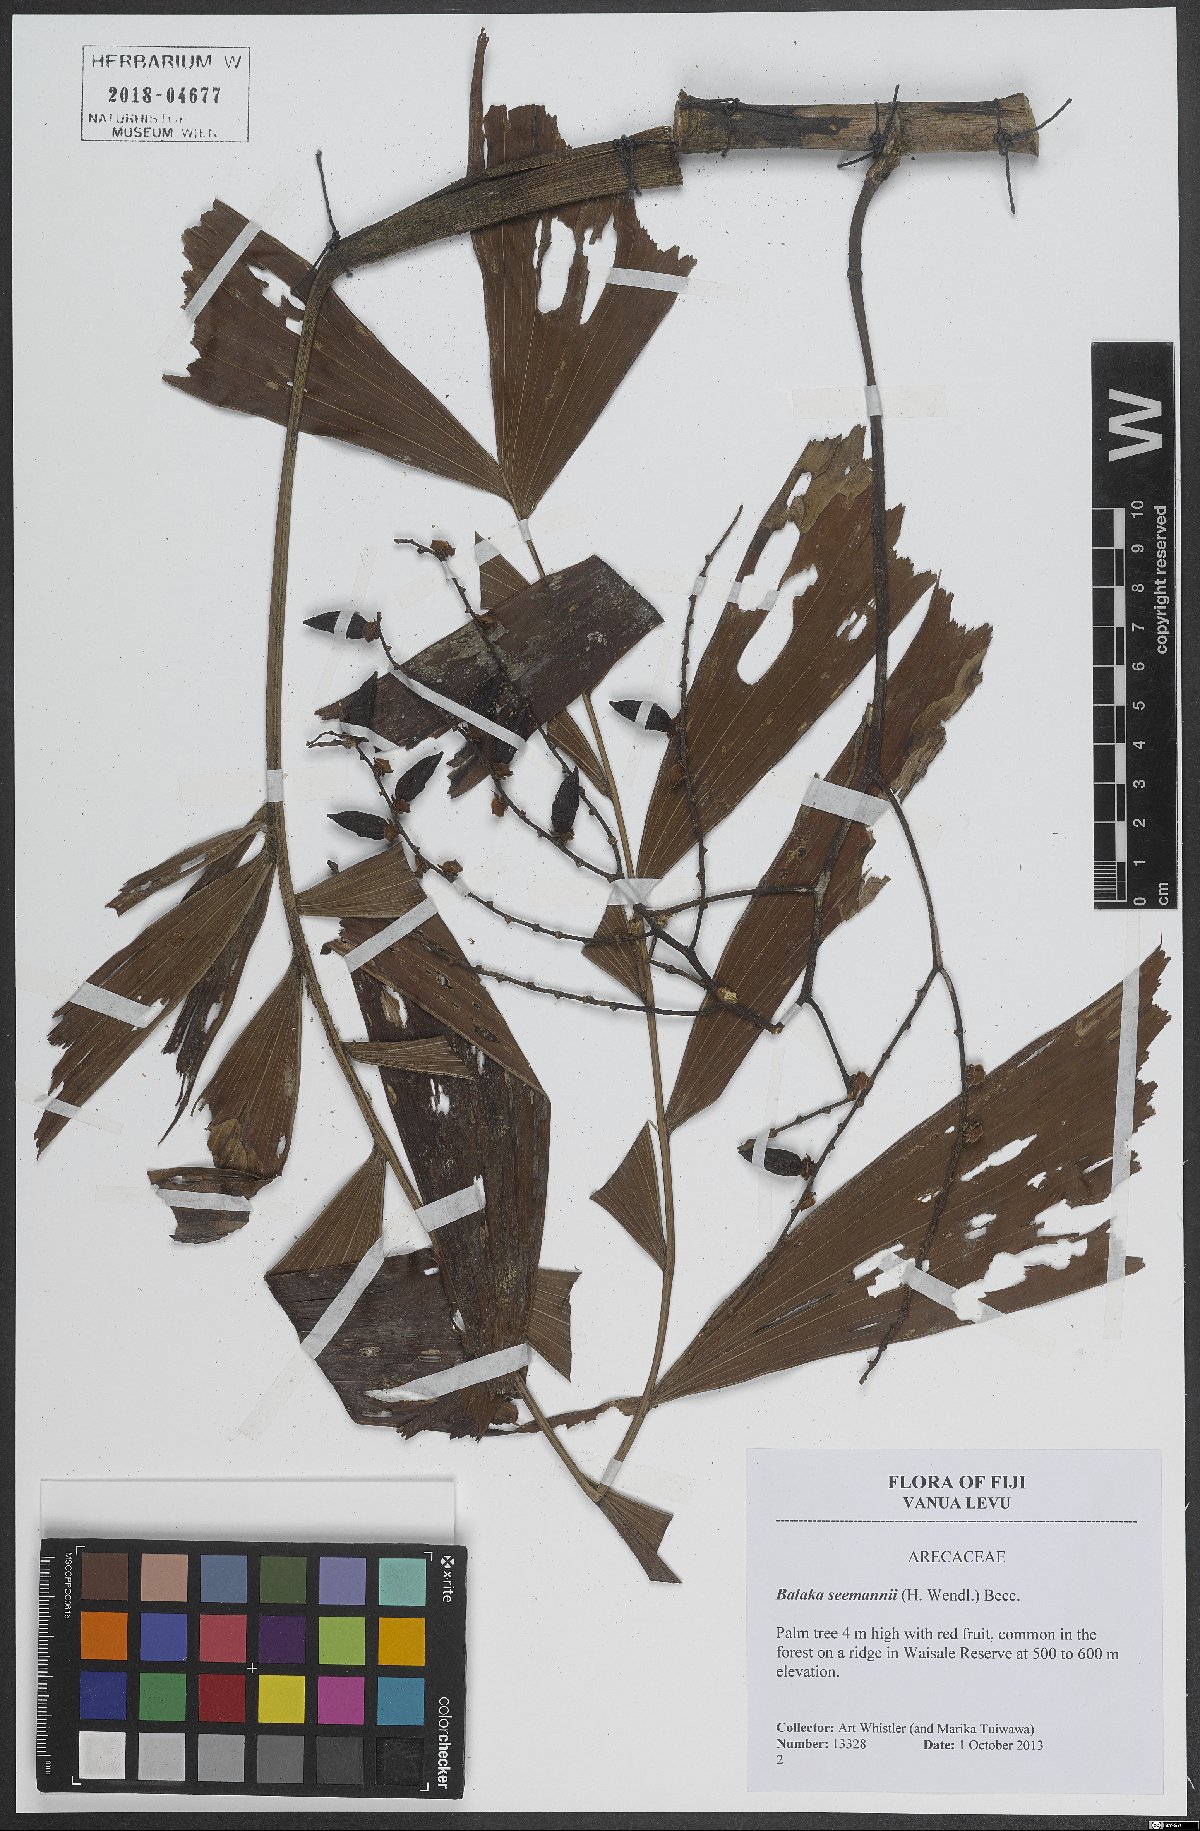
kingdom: Plantae
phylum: Tracheophyta
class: Liliopsida
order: Arecales
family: Arecaceae
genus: Balaka
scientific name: Balaka seemannii
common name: Balaka palm
